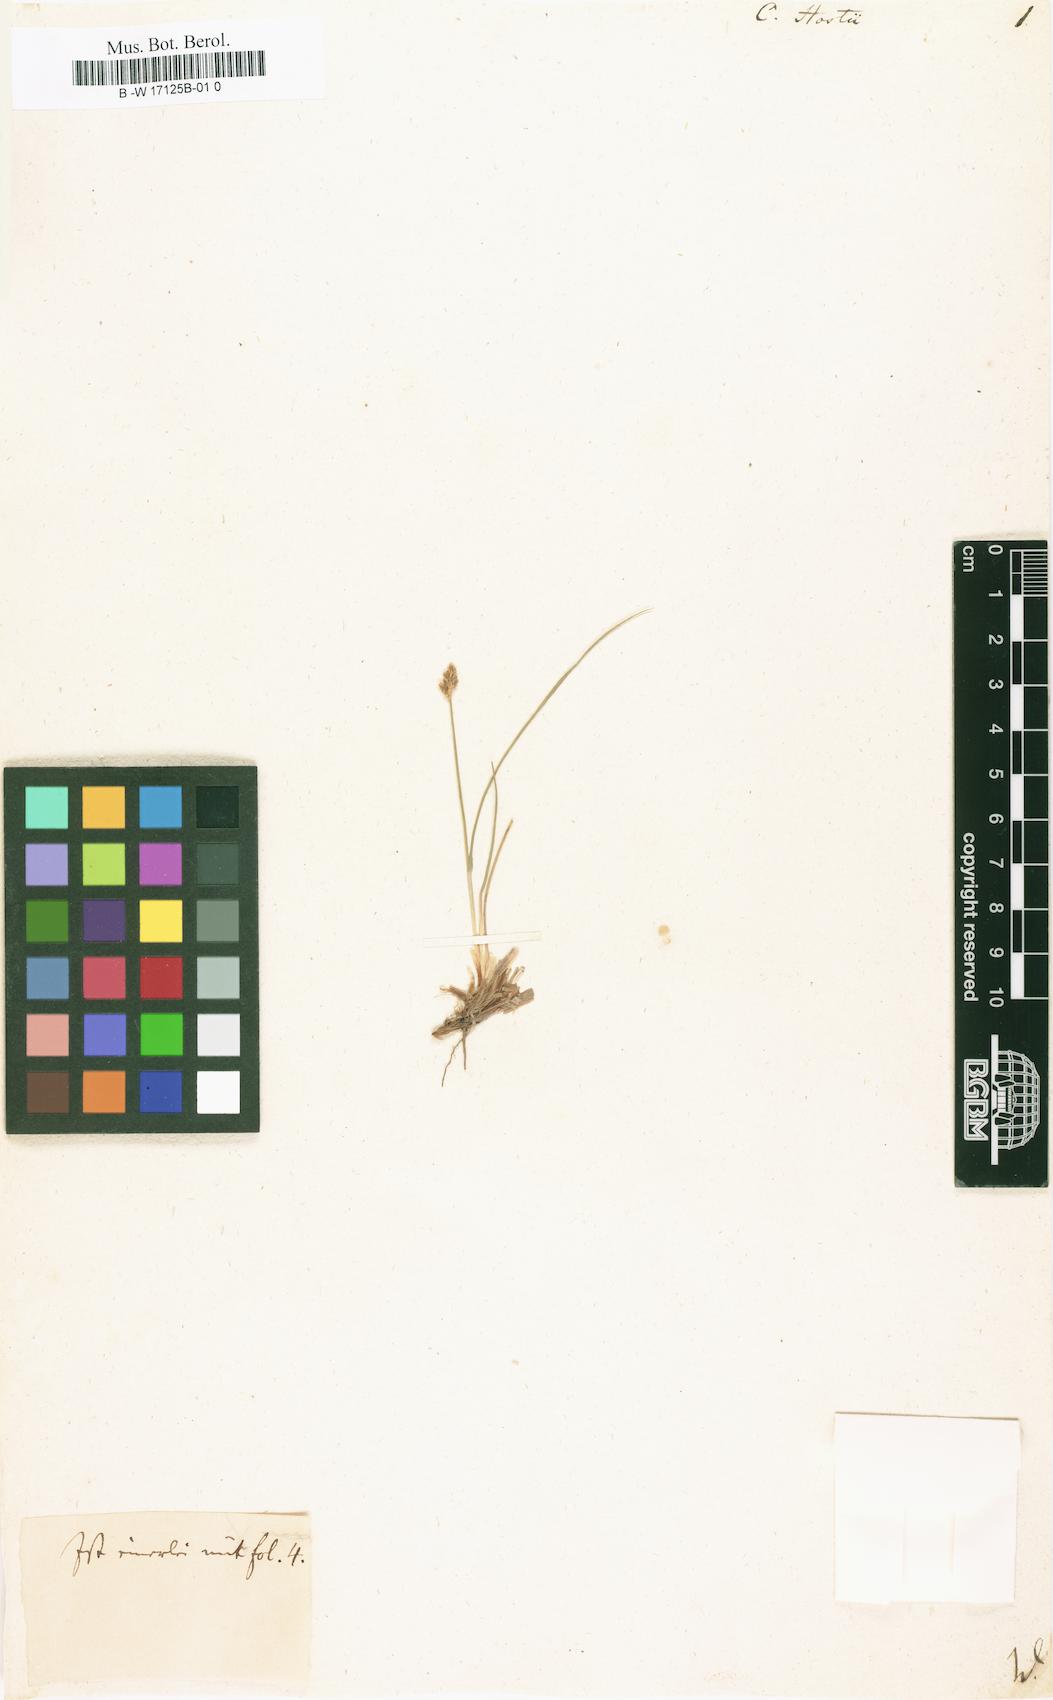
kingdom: Plantae
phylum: Tracheophyta
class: Liliopsida
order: Poales
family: Cyperaceae
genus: Carex
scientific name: Carex
